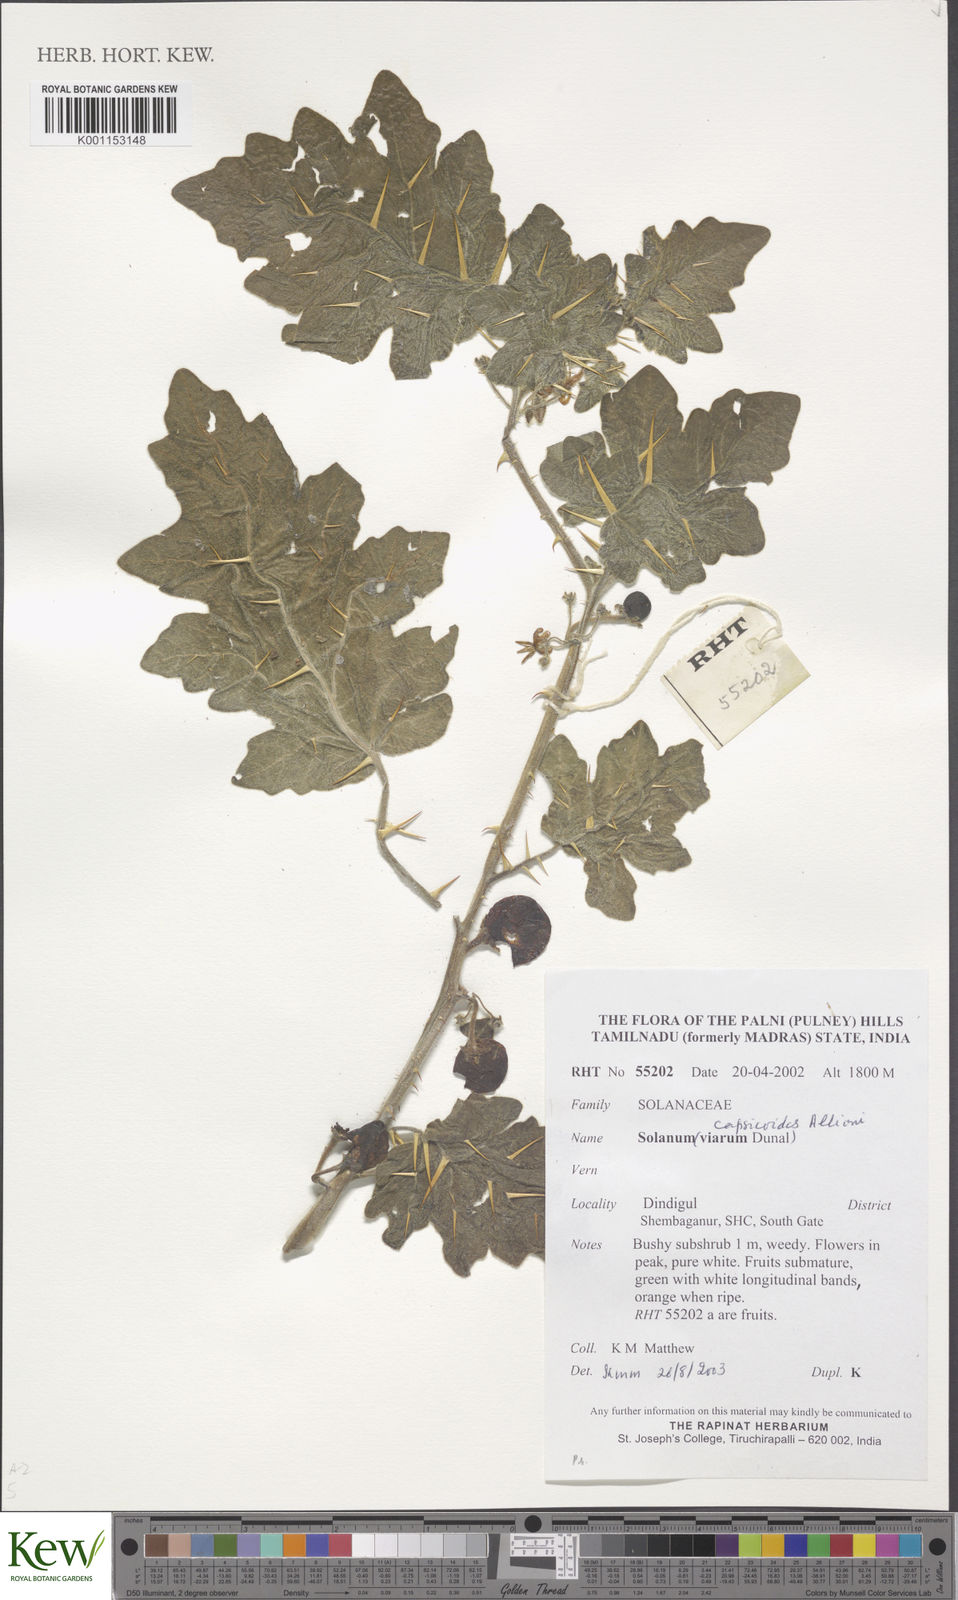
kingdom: Plantae
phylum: Tracheophyta
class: Magnoliopsida
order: Solanales
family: Solanaceae
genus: Solanum
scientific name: Solanum capsicoides
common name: Cockroach berry
